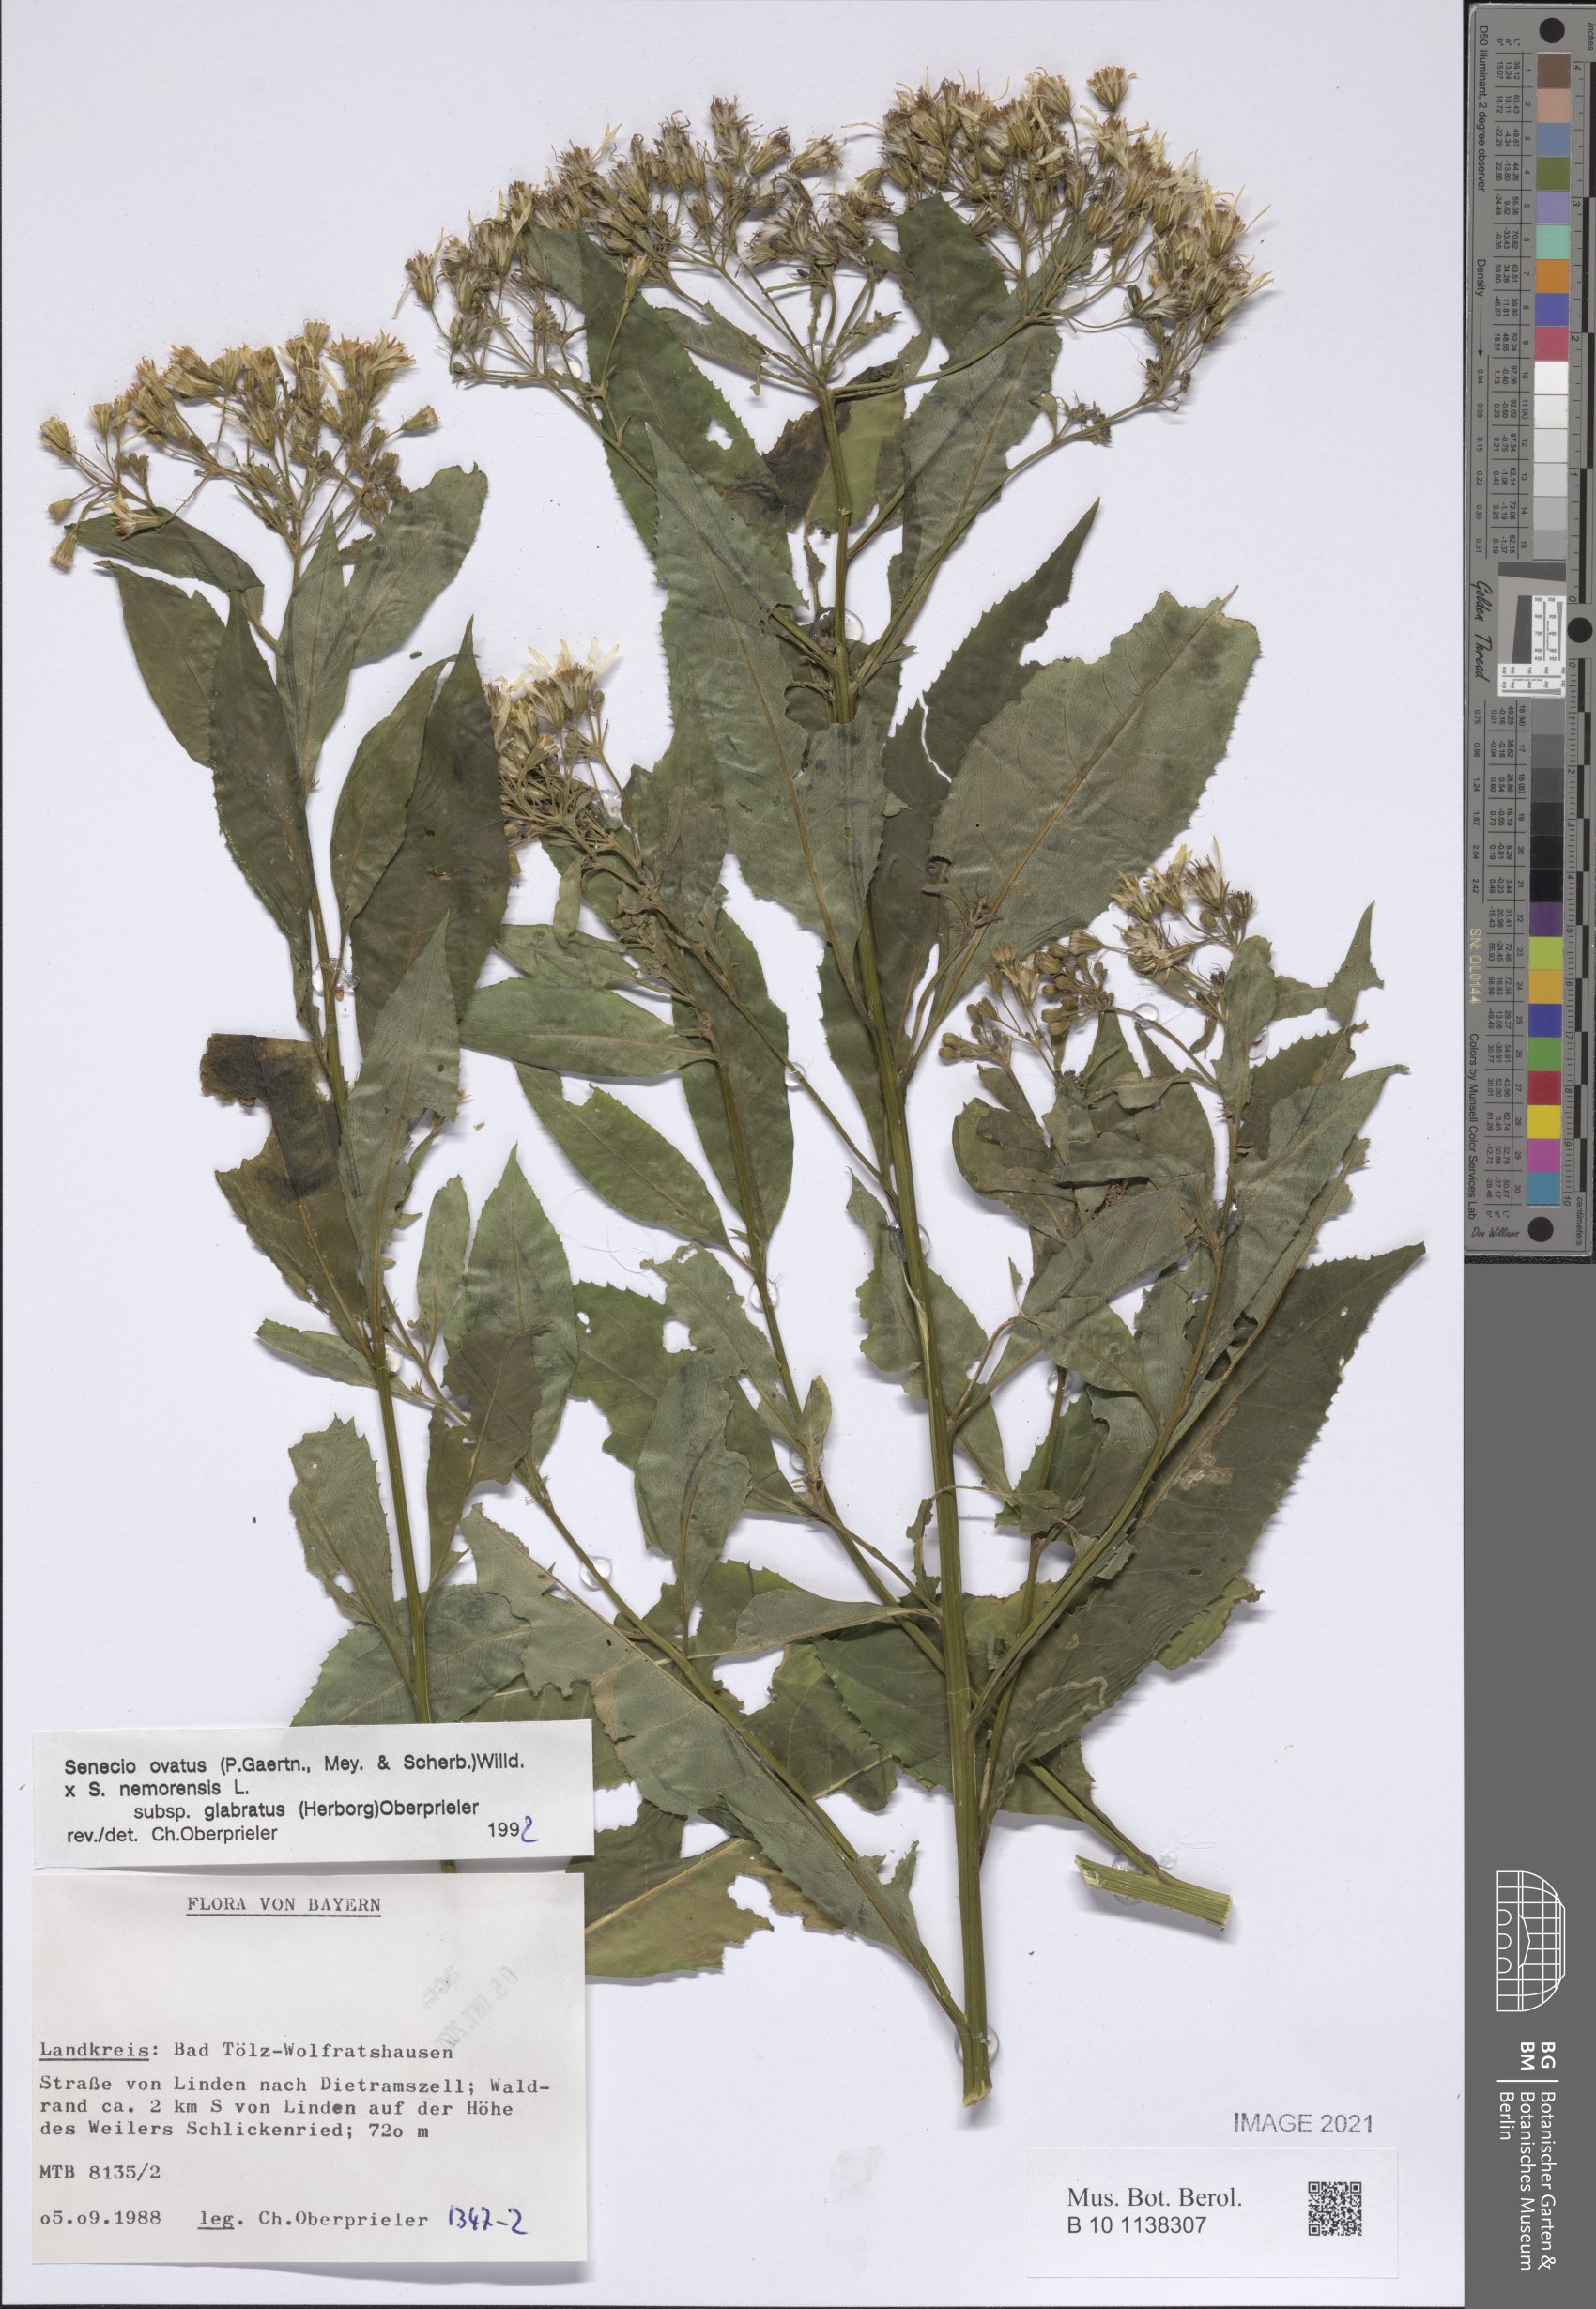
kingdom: Plantae
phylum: Tracheophyta
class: Magnoliopsida
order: Asterales
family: Asteraceae
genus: Senecio
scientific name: Senecio ovatus
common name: Wood ragwort
